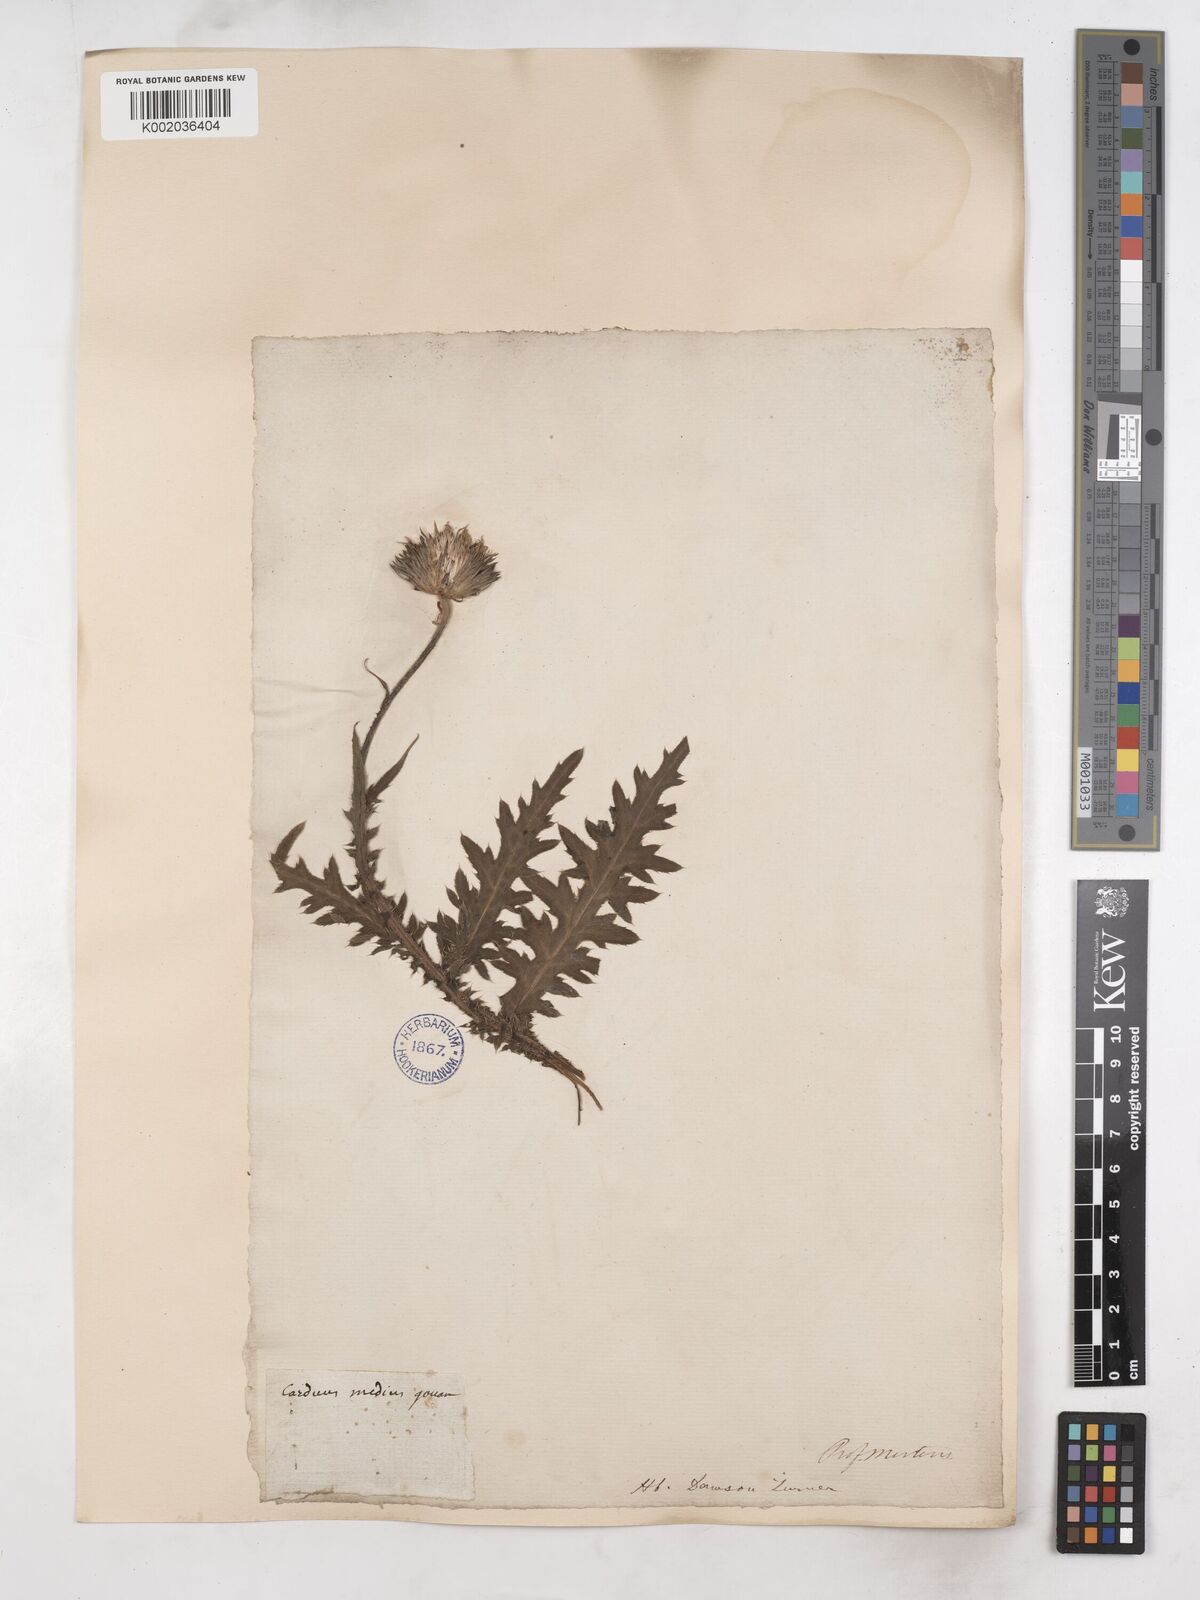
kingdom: Plantae
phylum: Tracheophyta
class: Magnoliopsida
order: Asterales
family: Asteraceae
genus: Carduus
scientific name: Carduus defloratus
